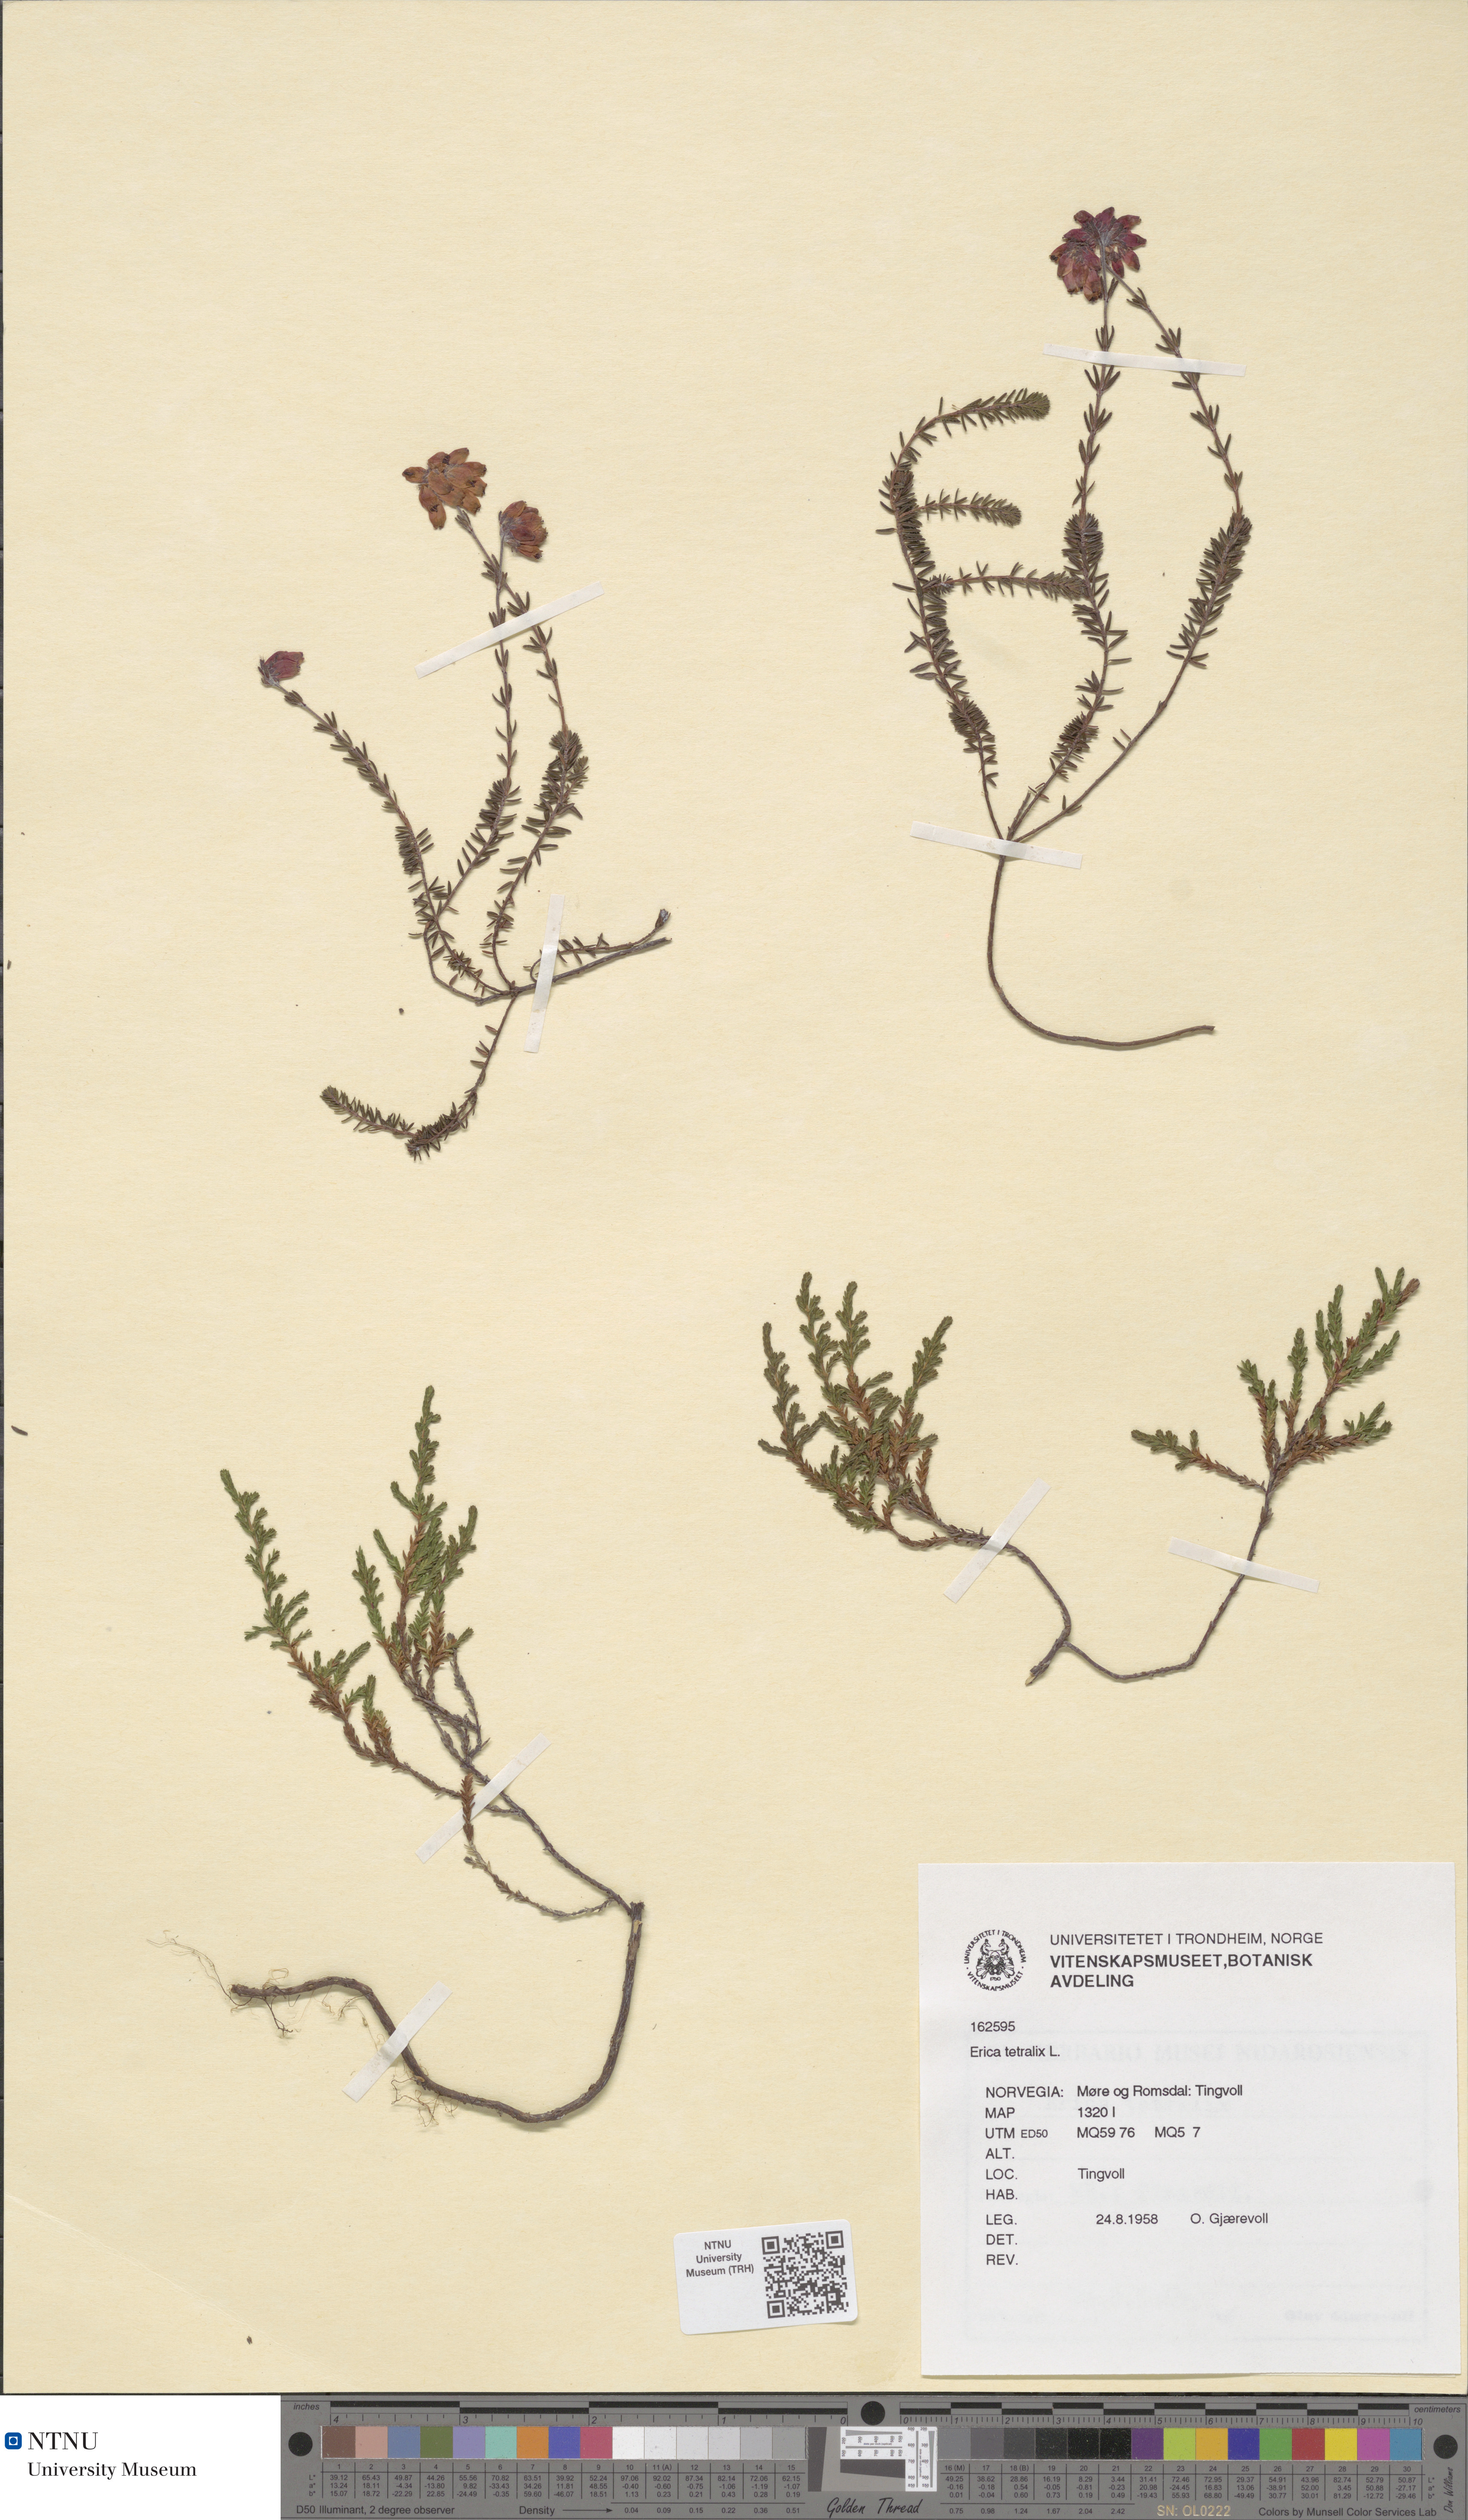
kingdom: Plantae
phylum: Tracheophyta
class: Magnoliopsida
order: Ericales
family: Ericaceae
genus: Erica
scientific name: Erica tetralix
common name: Cross-leaved heath
